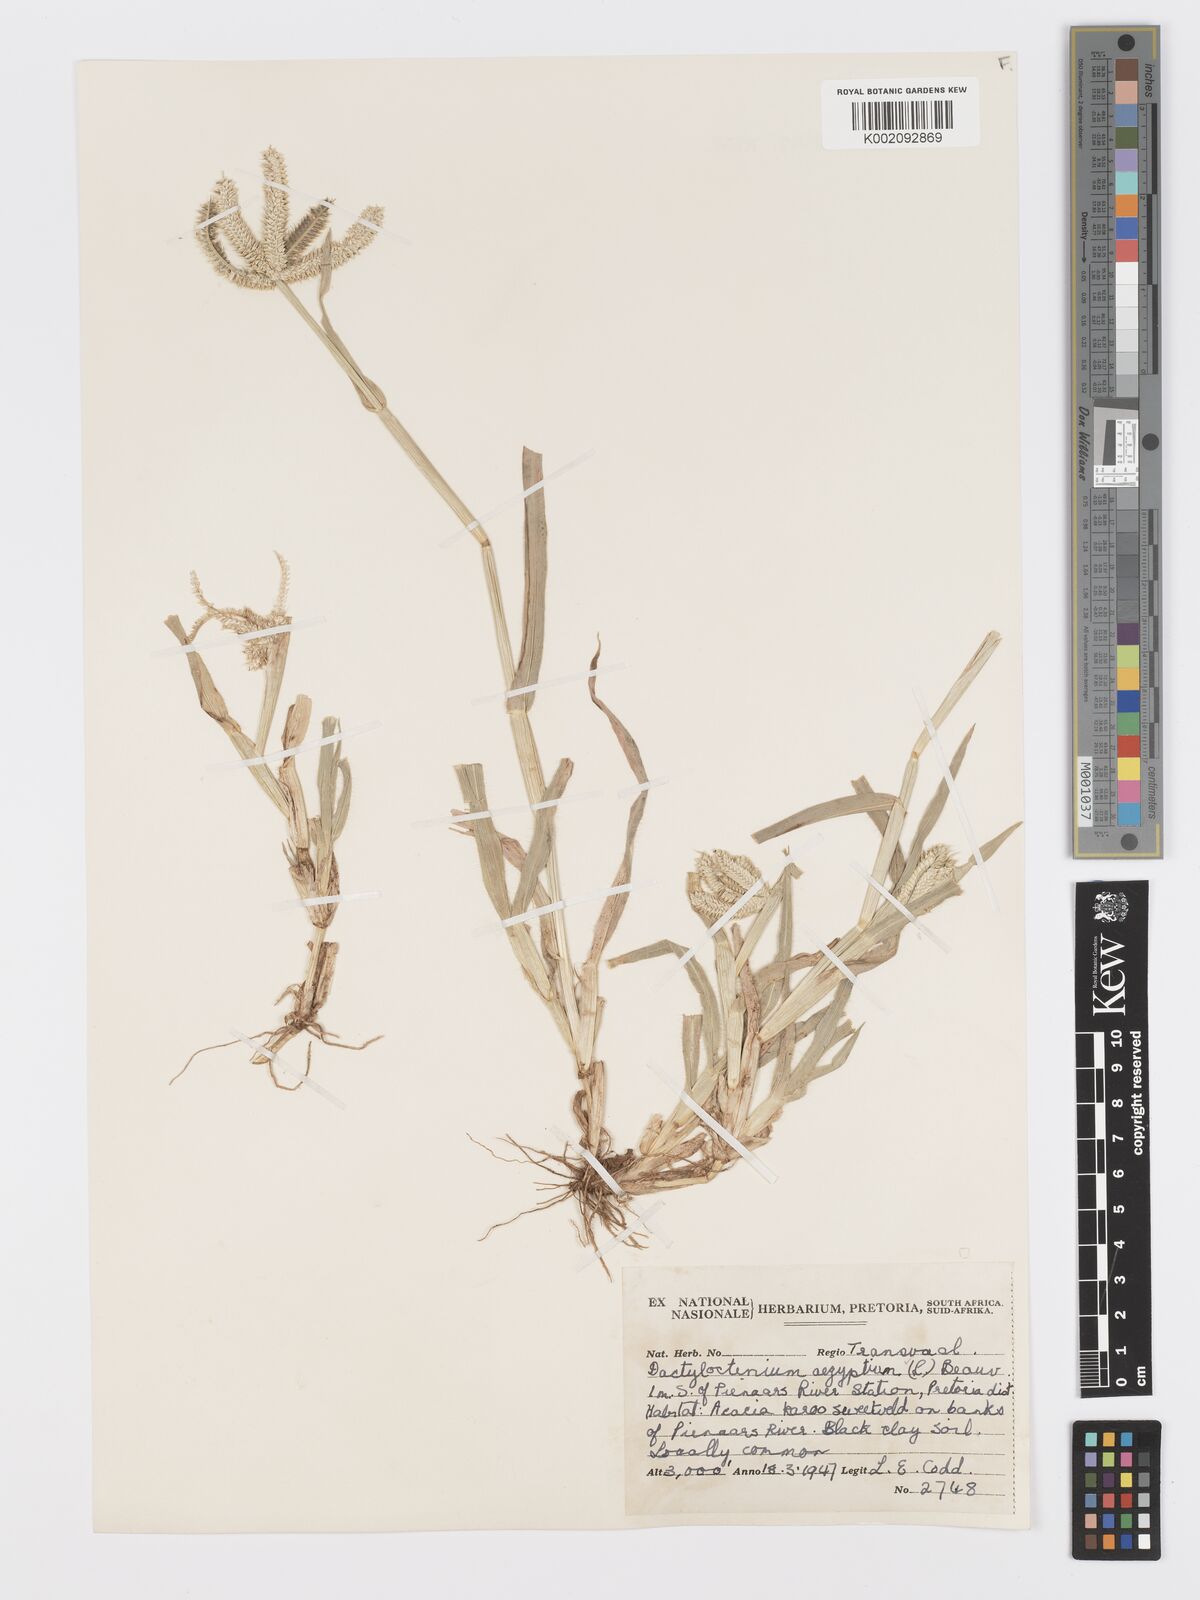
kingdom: Plantae
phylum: Tracheophyta
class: Liliopsida
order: Poales
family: Poaceae
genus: Dactyloctenium
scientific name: Dactyloctenium aegyptium
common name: Egyptian grass
